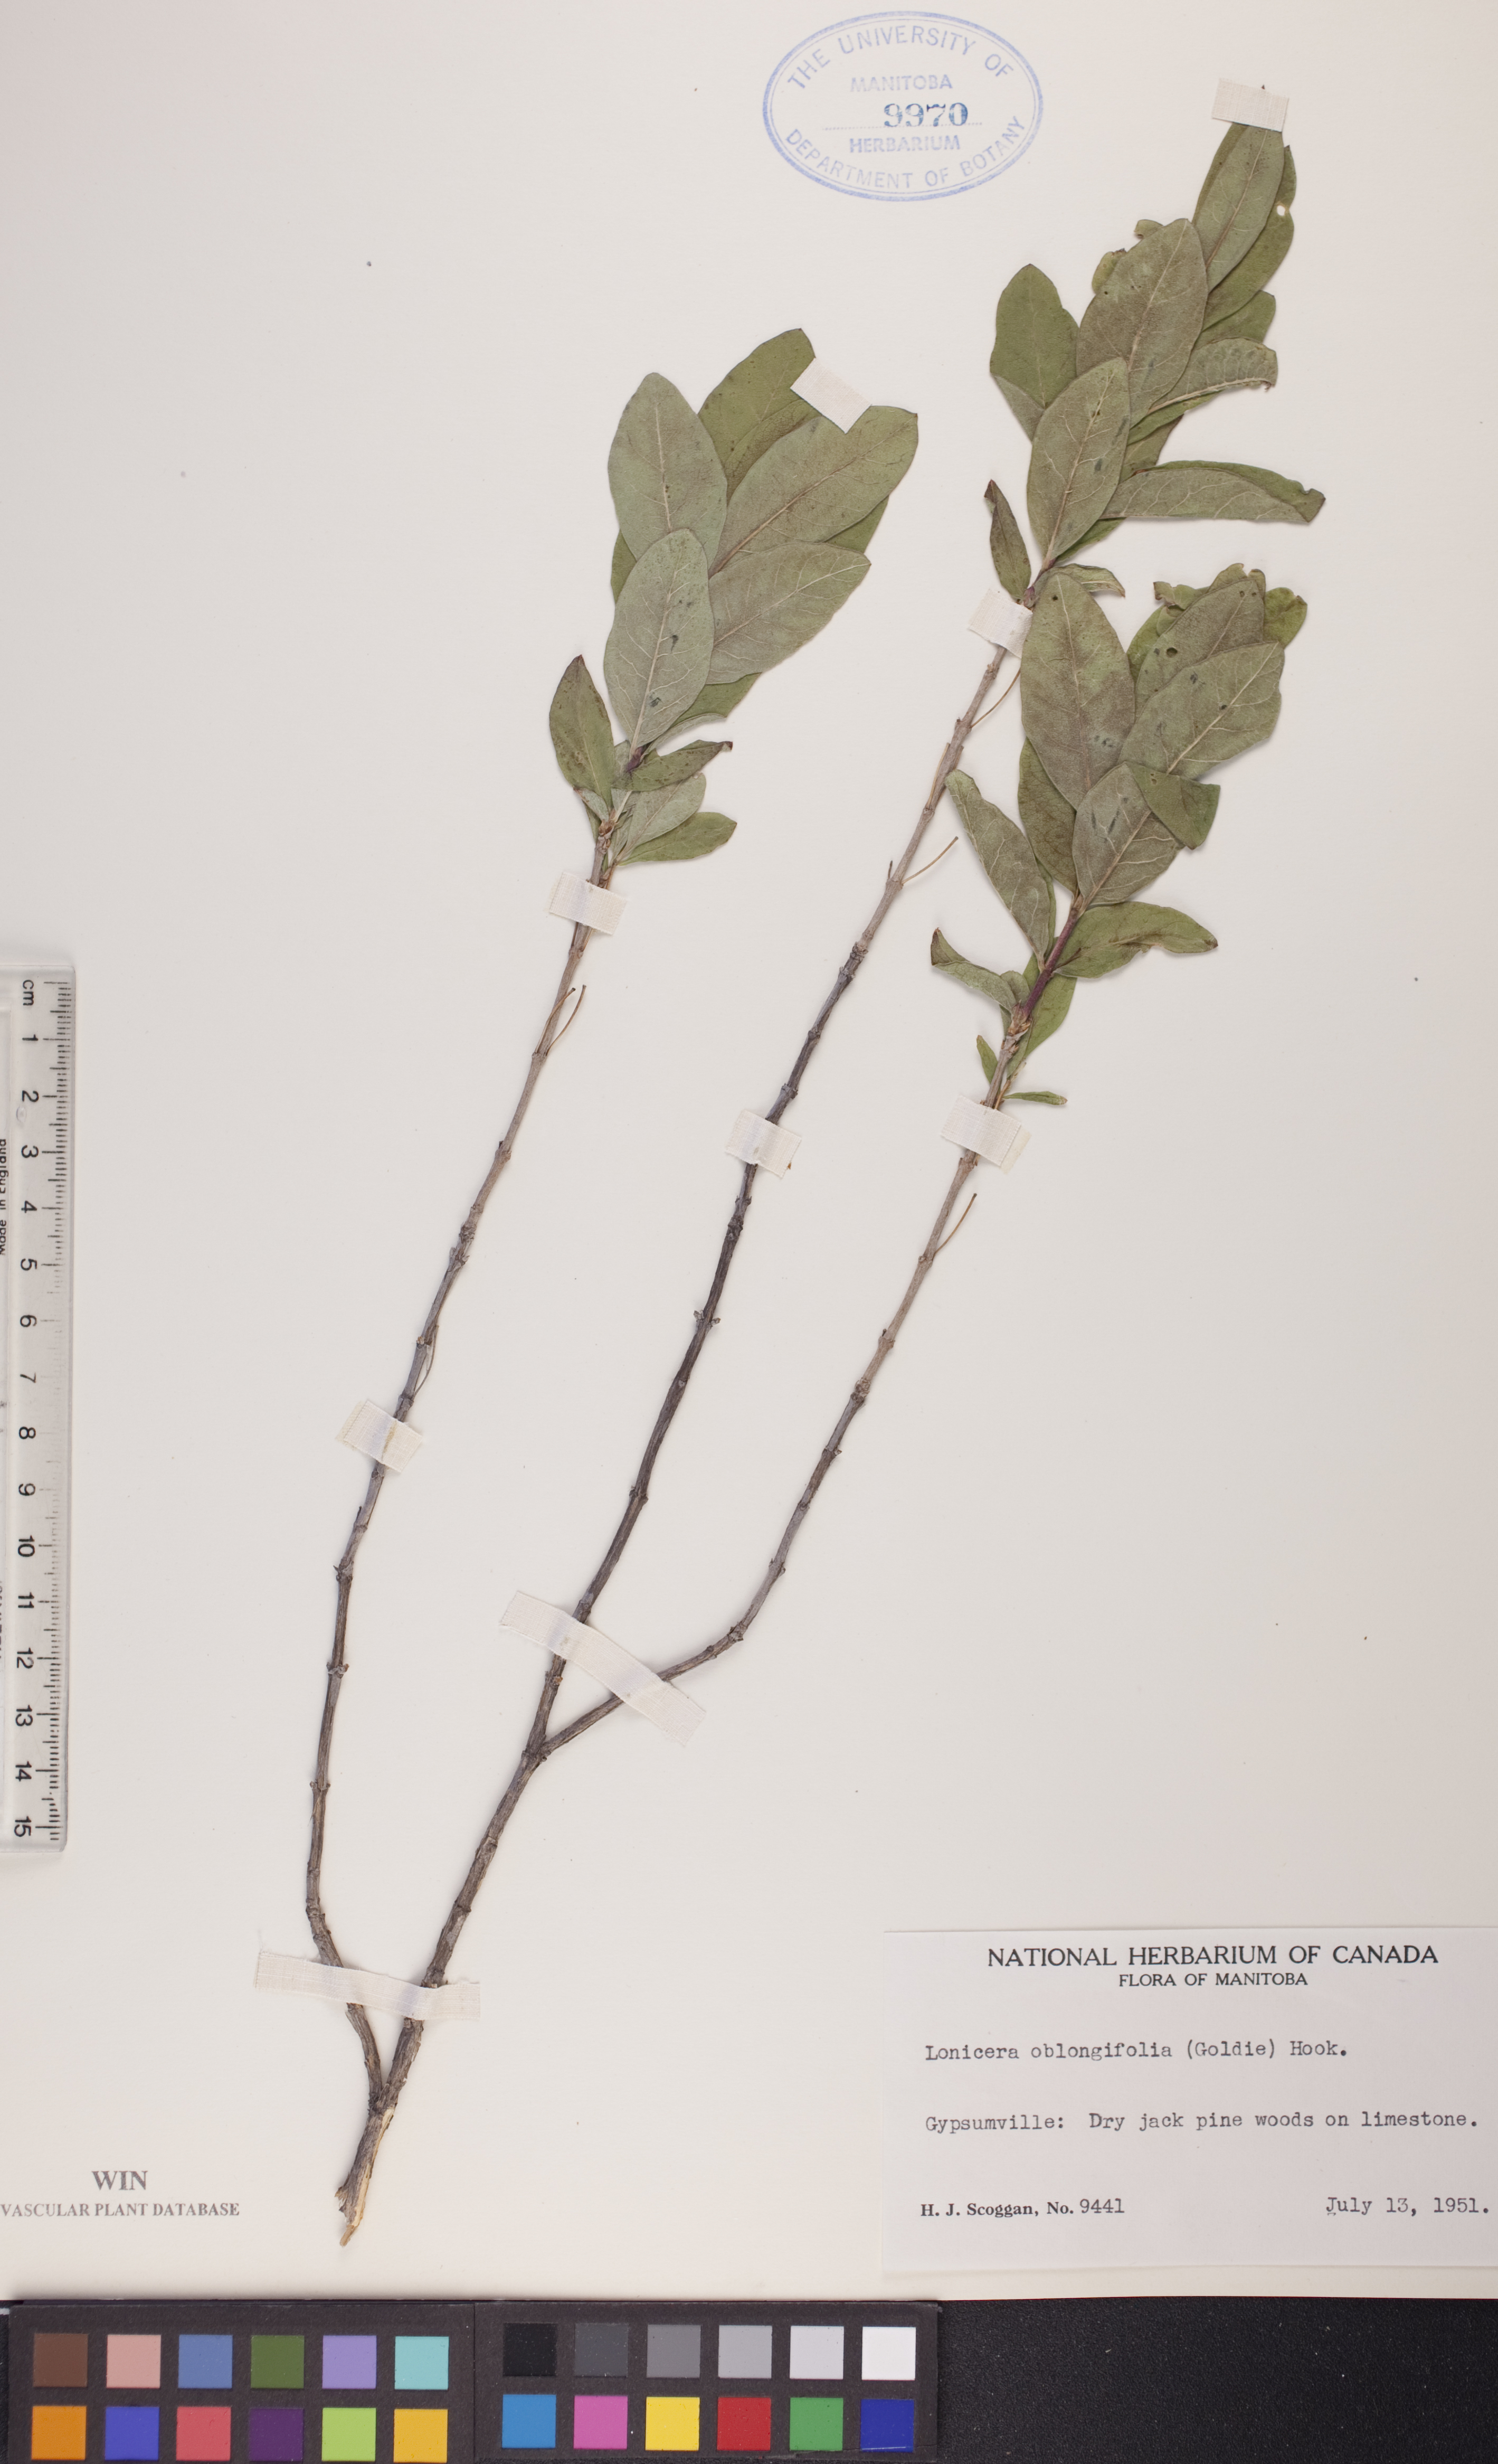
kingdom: Plantae
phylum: Tracheophyta
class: Magnoliopsida
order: Dipsacales
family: Caprifoliaceae
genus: Lonicera
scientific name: Lonicera oblongifolia
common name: Swamp fly honeysuckle
